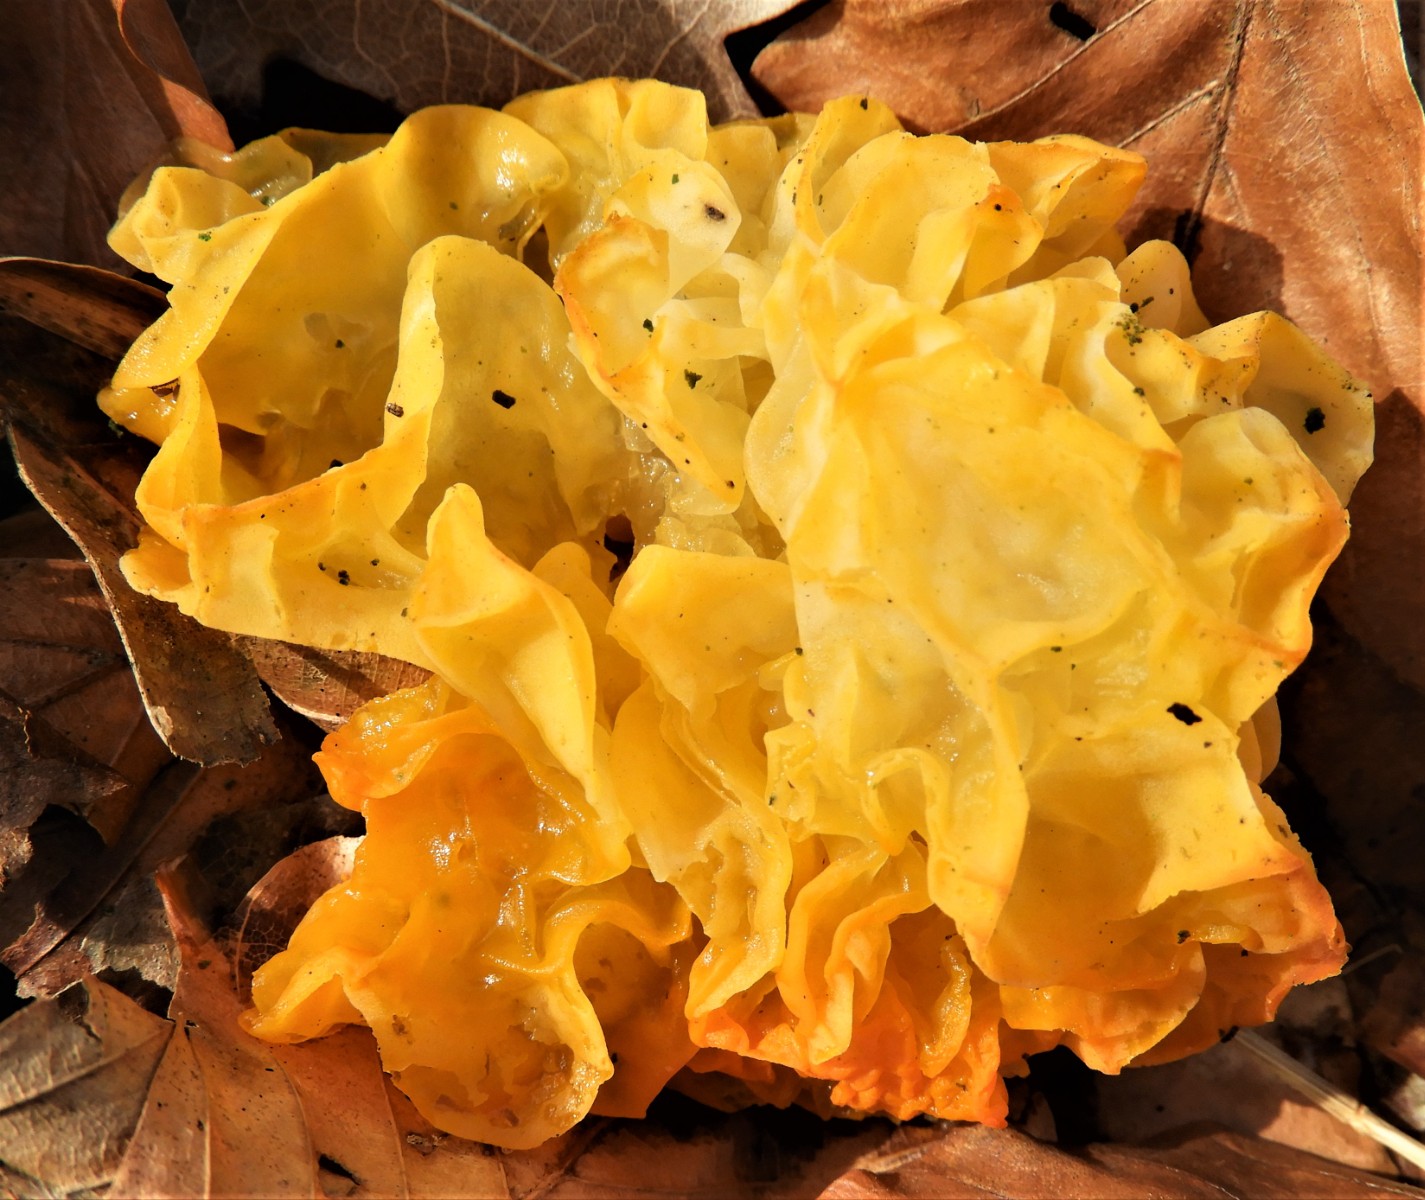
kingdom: Fungi
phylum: Basidiomycota
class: Tremellomycetes
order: Tremellales
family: Tremellaceae
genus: Tremella
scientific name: Tremella mesenterica
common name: gul bævresvamp
